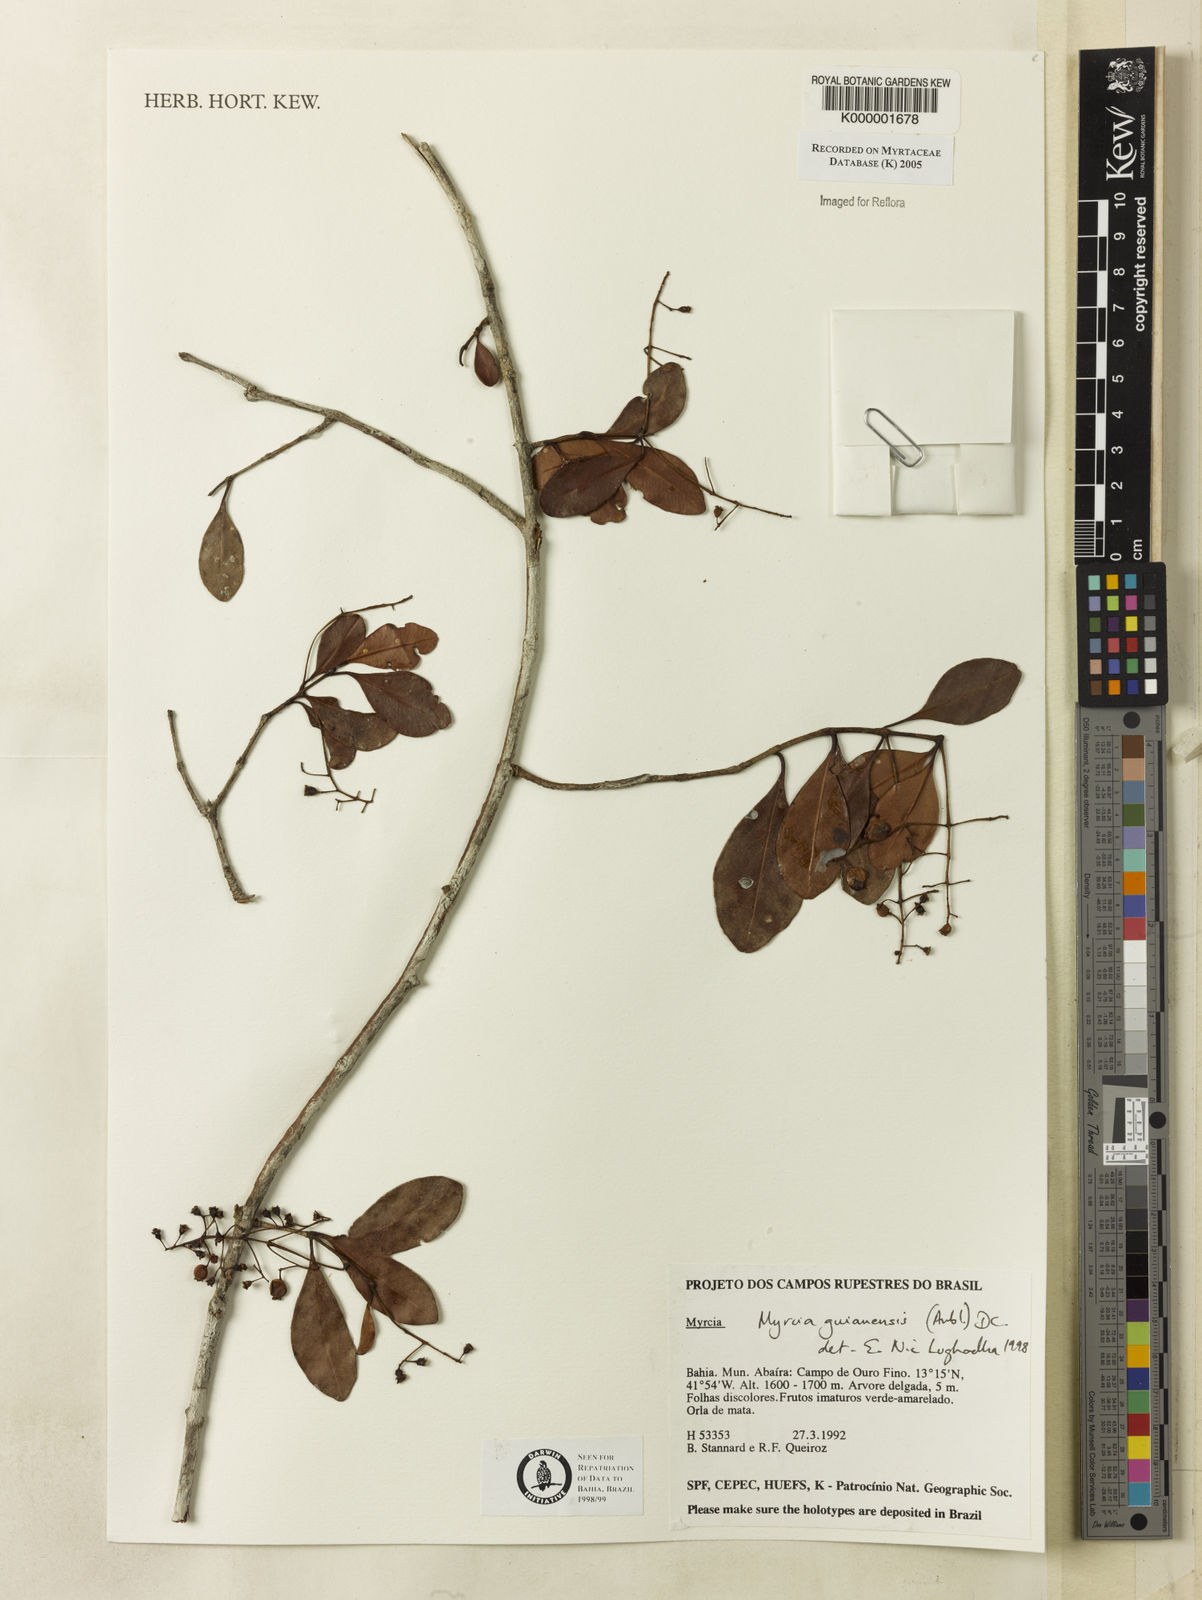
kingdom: Plantae
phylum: Tracheophyta
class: Magnoliopsida
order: Myrtales
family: Myrtaceae
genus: Myrcia
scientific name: Myrcia guianensis
